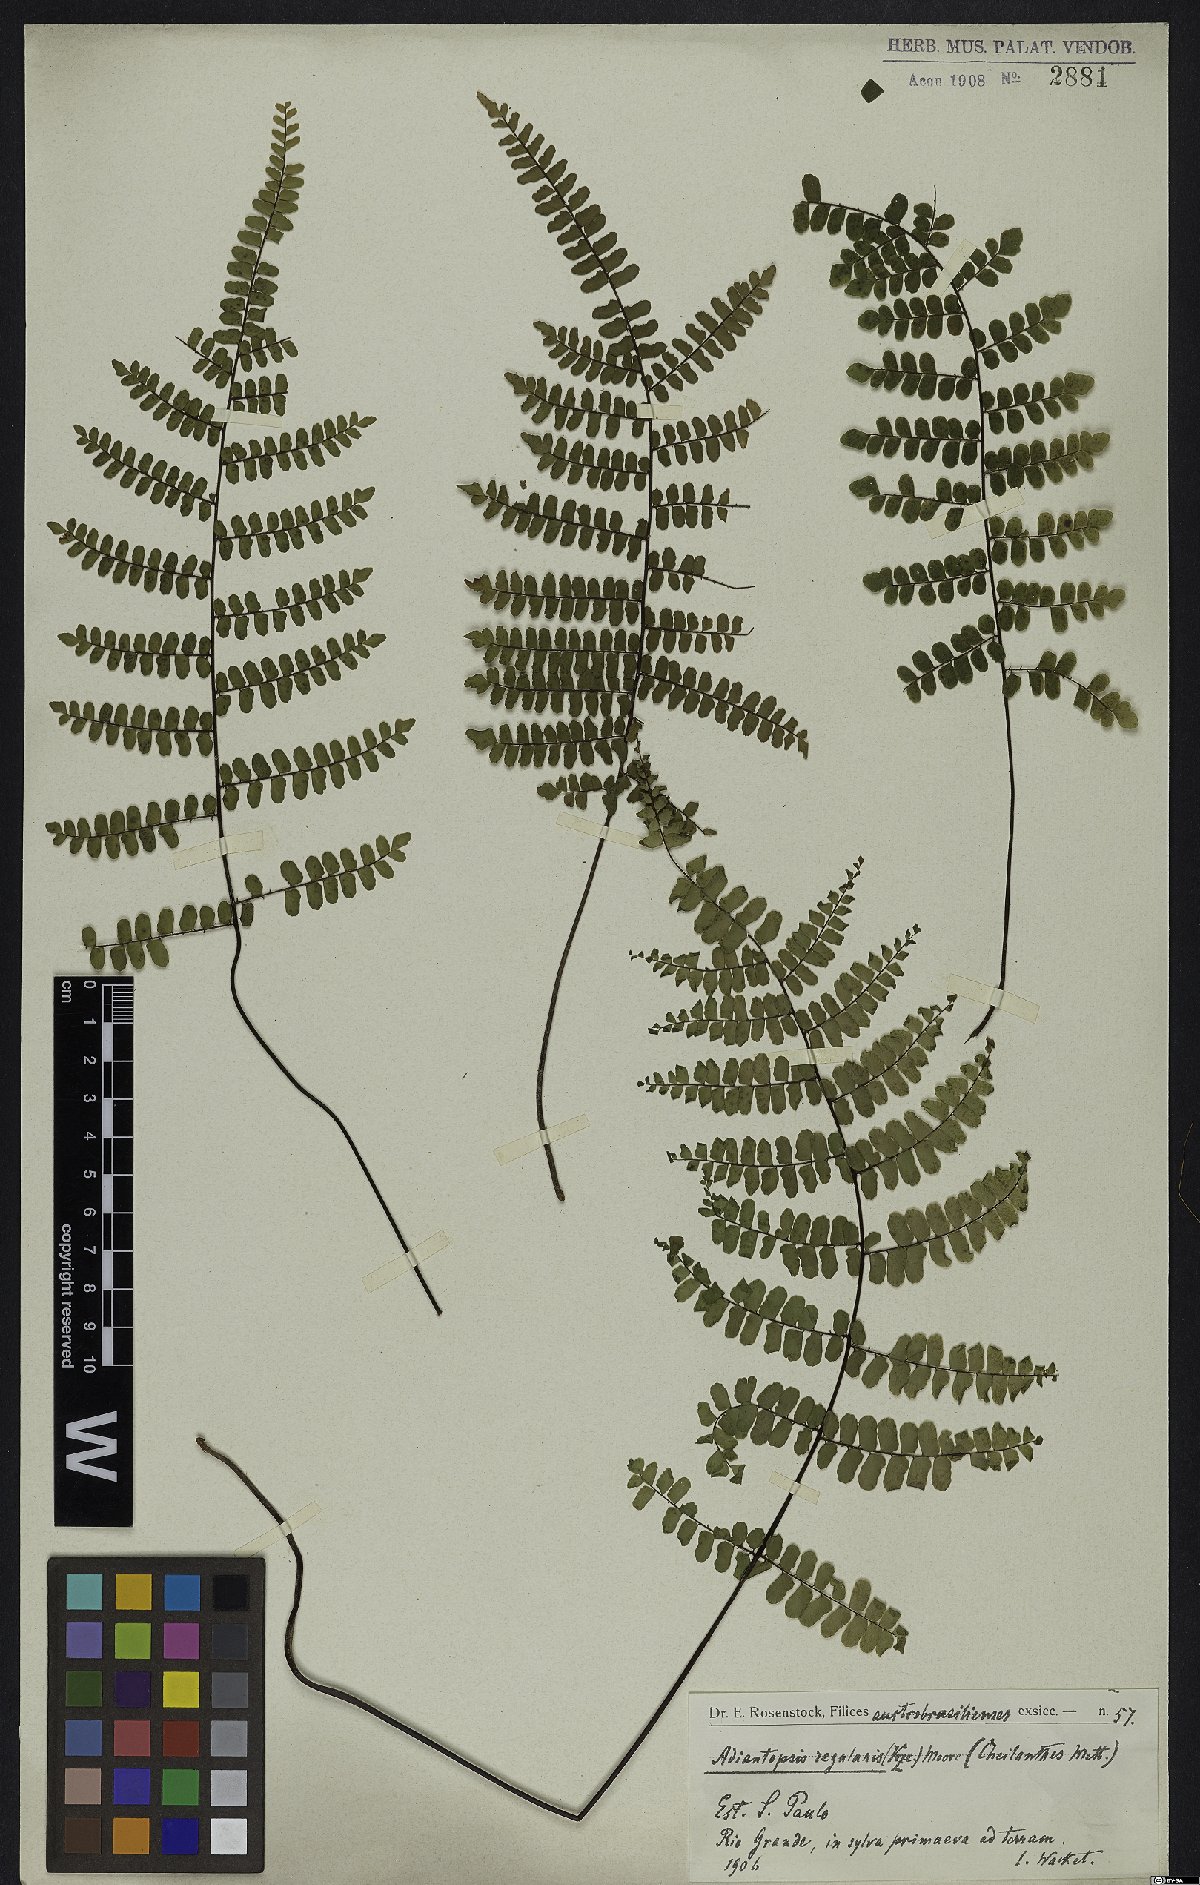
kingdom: Plantae
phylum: Tracheophyta
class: Polypodiopsida
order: Polypodiales
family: Pteridaceae
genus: Adiantopsis
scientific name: Adiantopsis regularis
